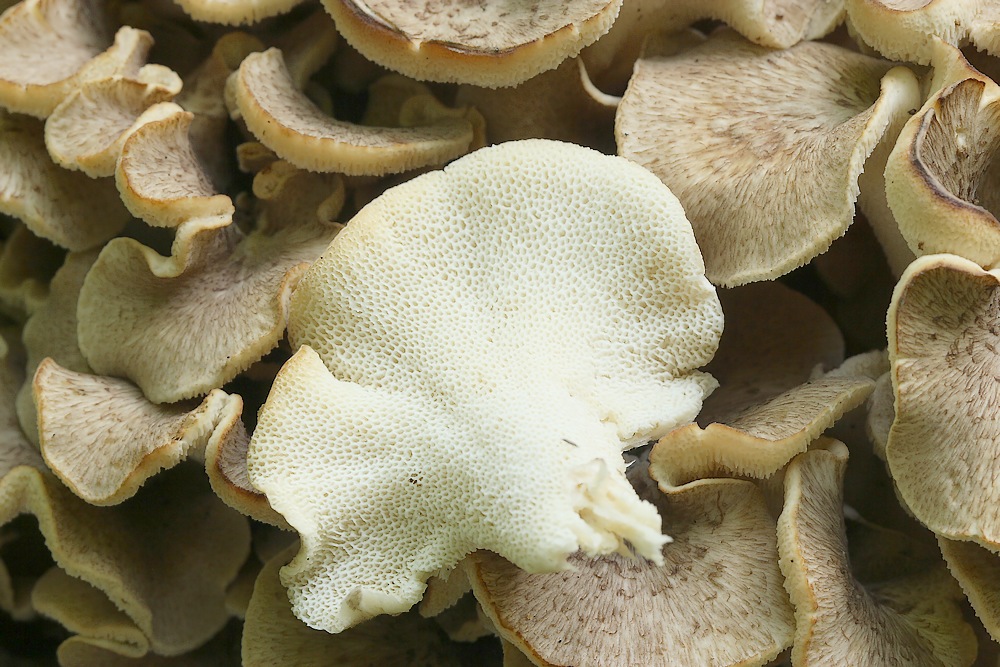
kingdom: Fungi
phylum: Basidiomycota
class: Agaricomycetes
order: Polyporales
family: Polyporaceae
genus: Polyporus
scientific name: Polyporus umbellatus
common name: skærmformet stilkporesvamp
